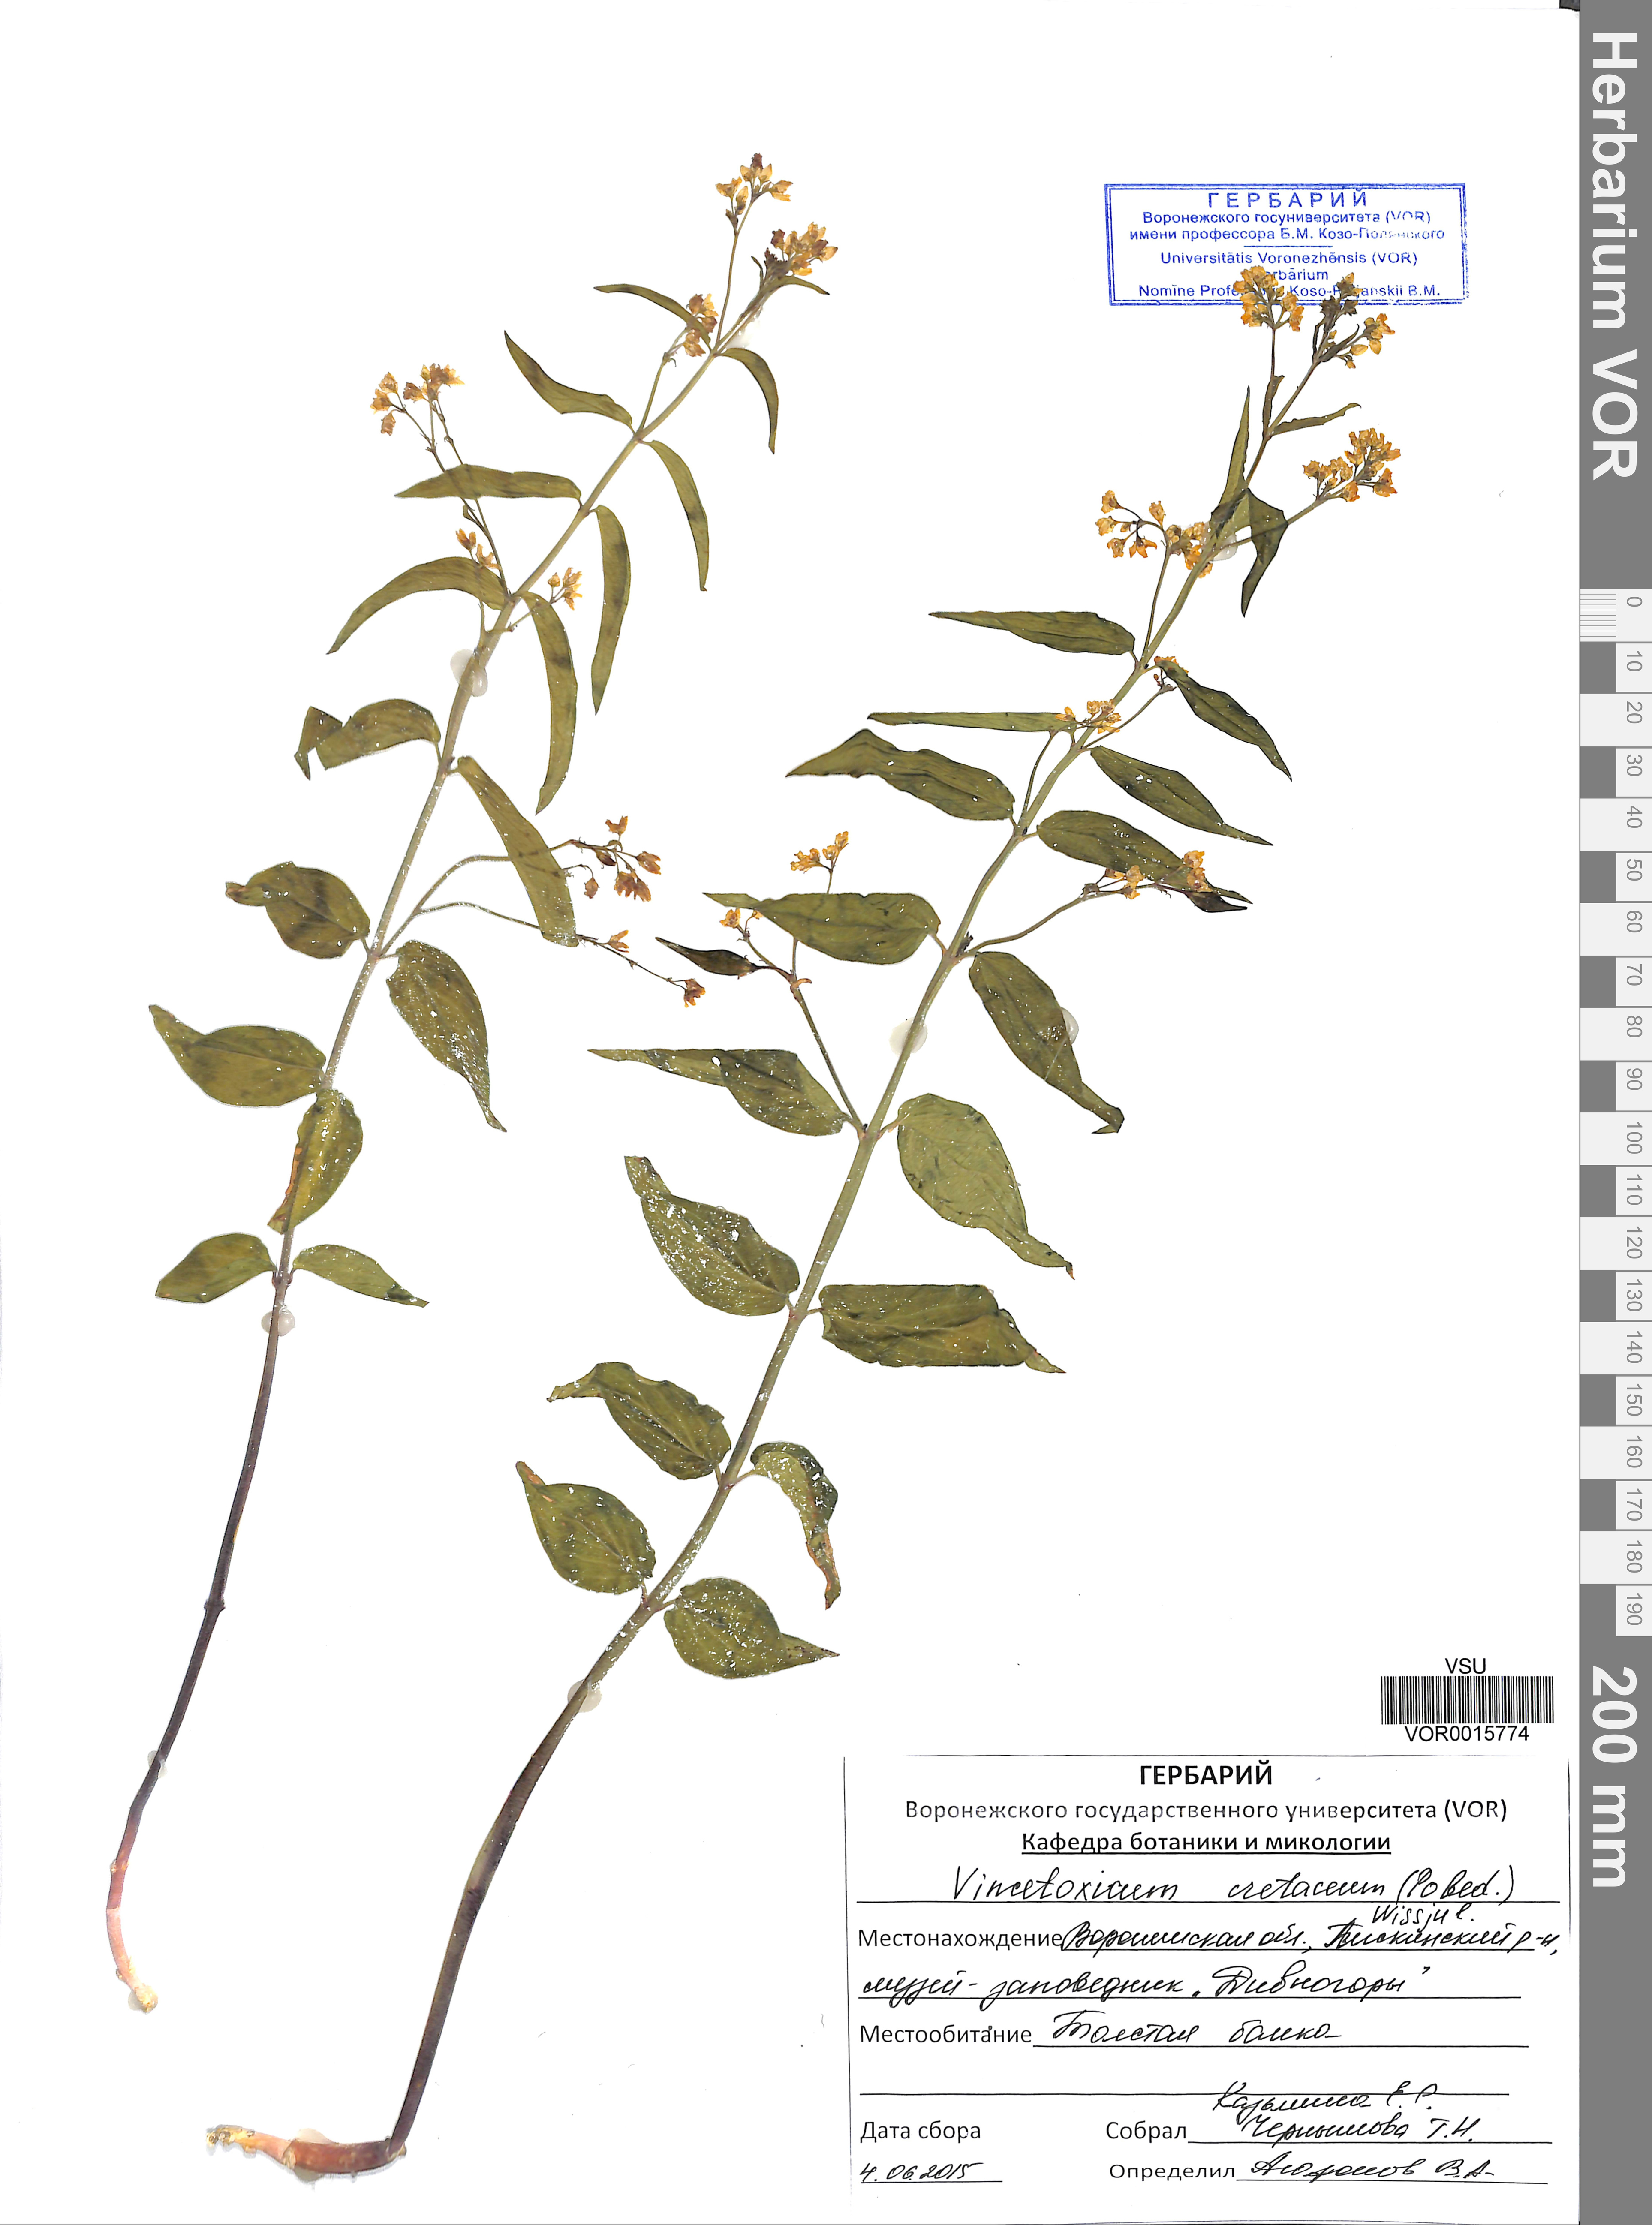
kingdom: Plantae
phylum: Tracheophyta
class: Magnoliopsida
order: Gentianales
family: Apocynaceae
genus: Vincetoxicum
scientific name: Vincetoxicum hirundinaria
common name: White swallowwort
